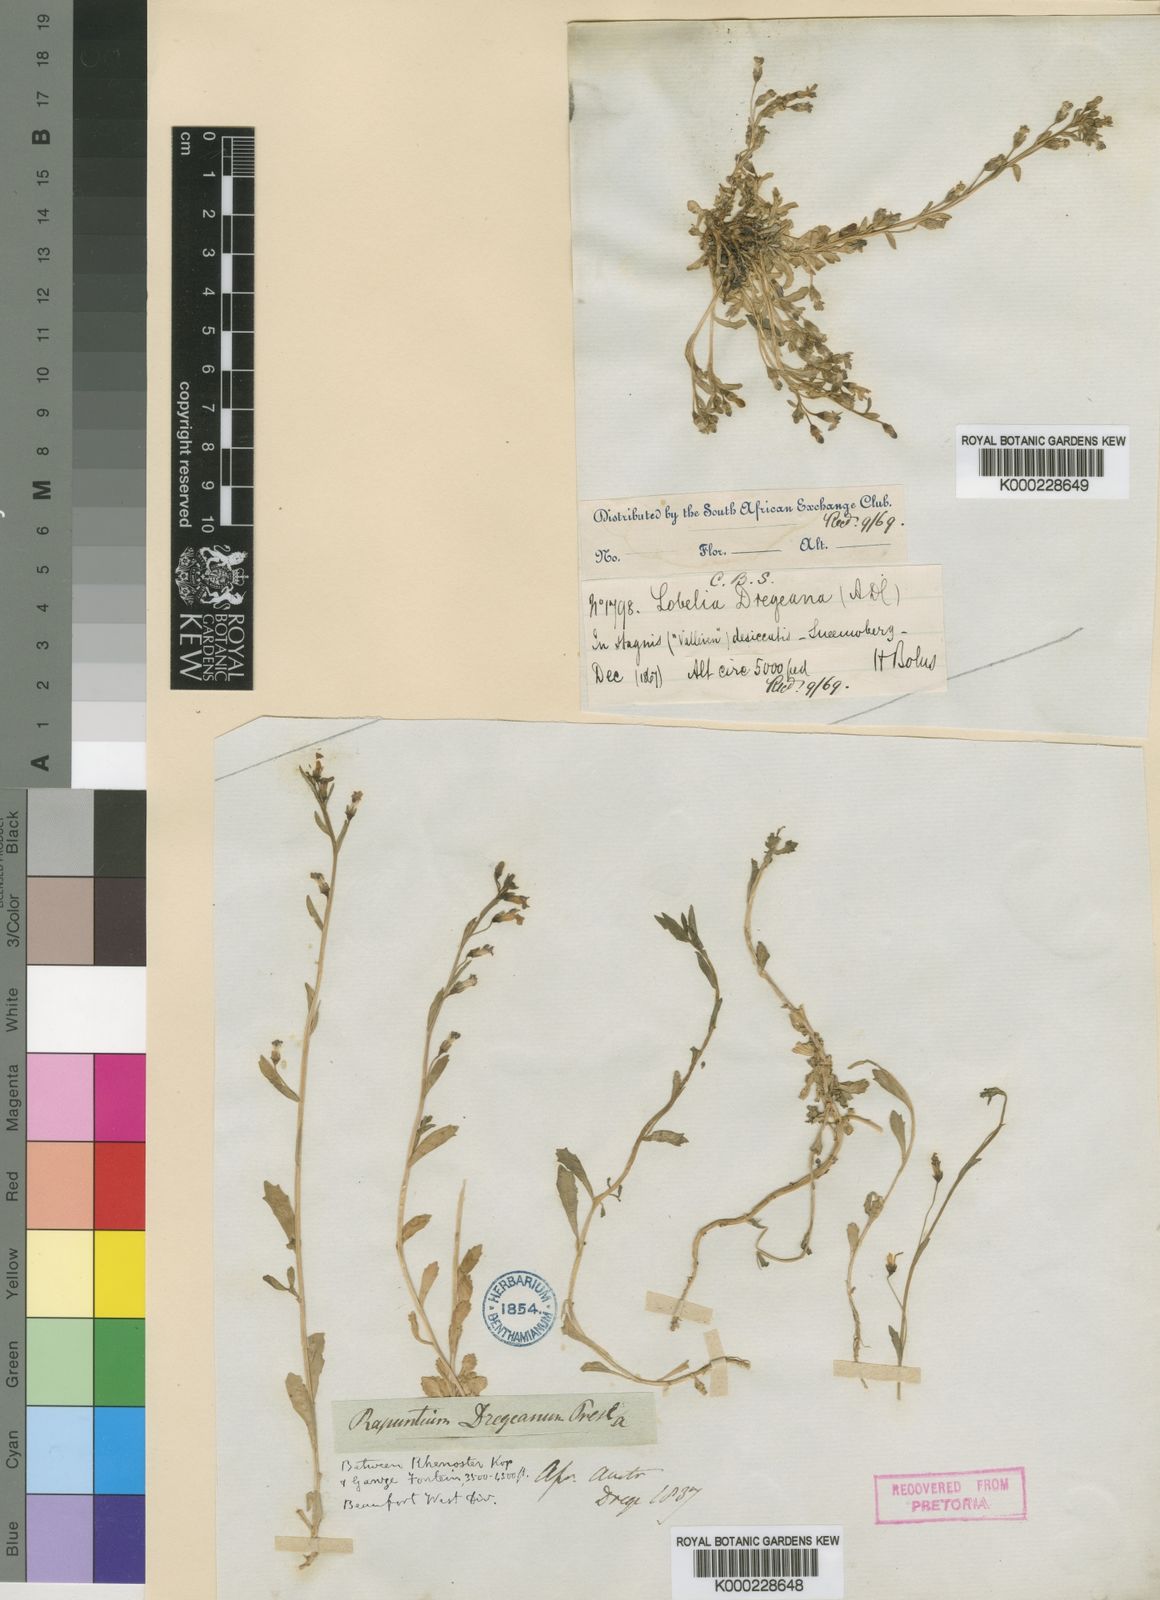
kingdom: Plantae
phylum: Tracheophyta
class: Magnoliopsida
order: Asterales
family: Campanulaceae
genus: Lobelia
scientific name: Lobelia dregeana
